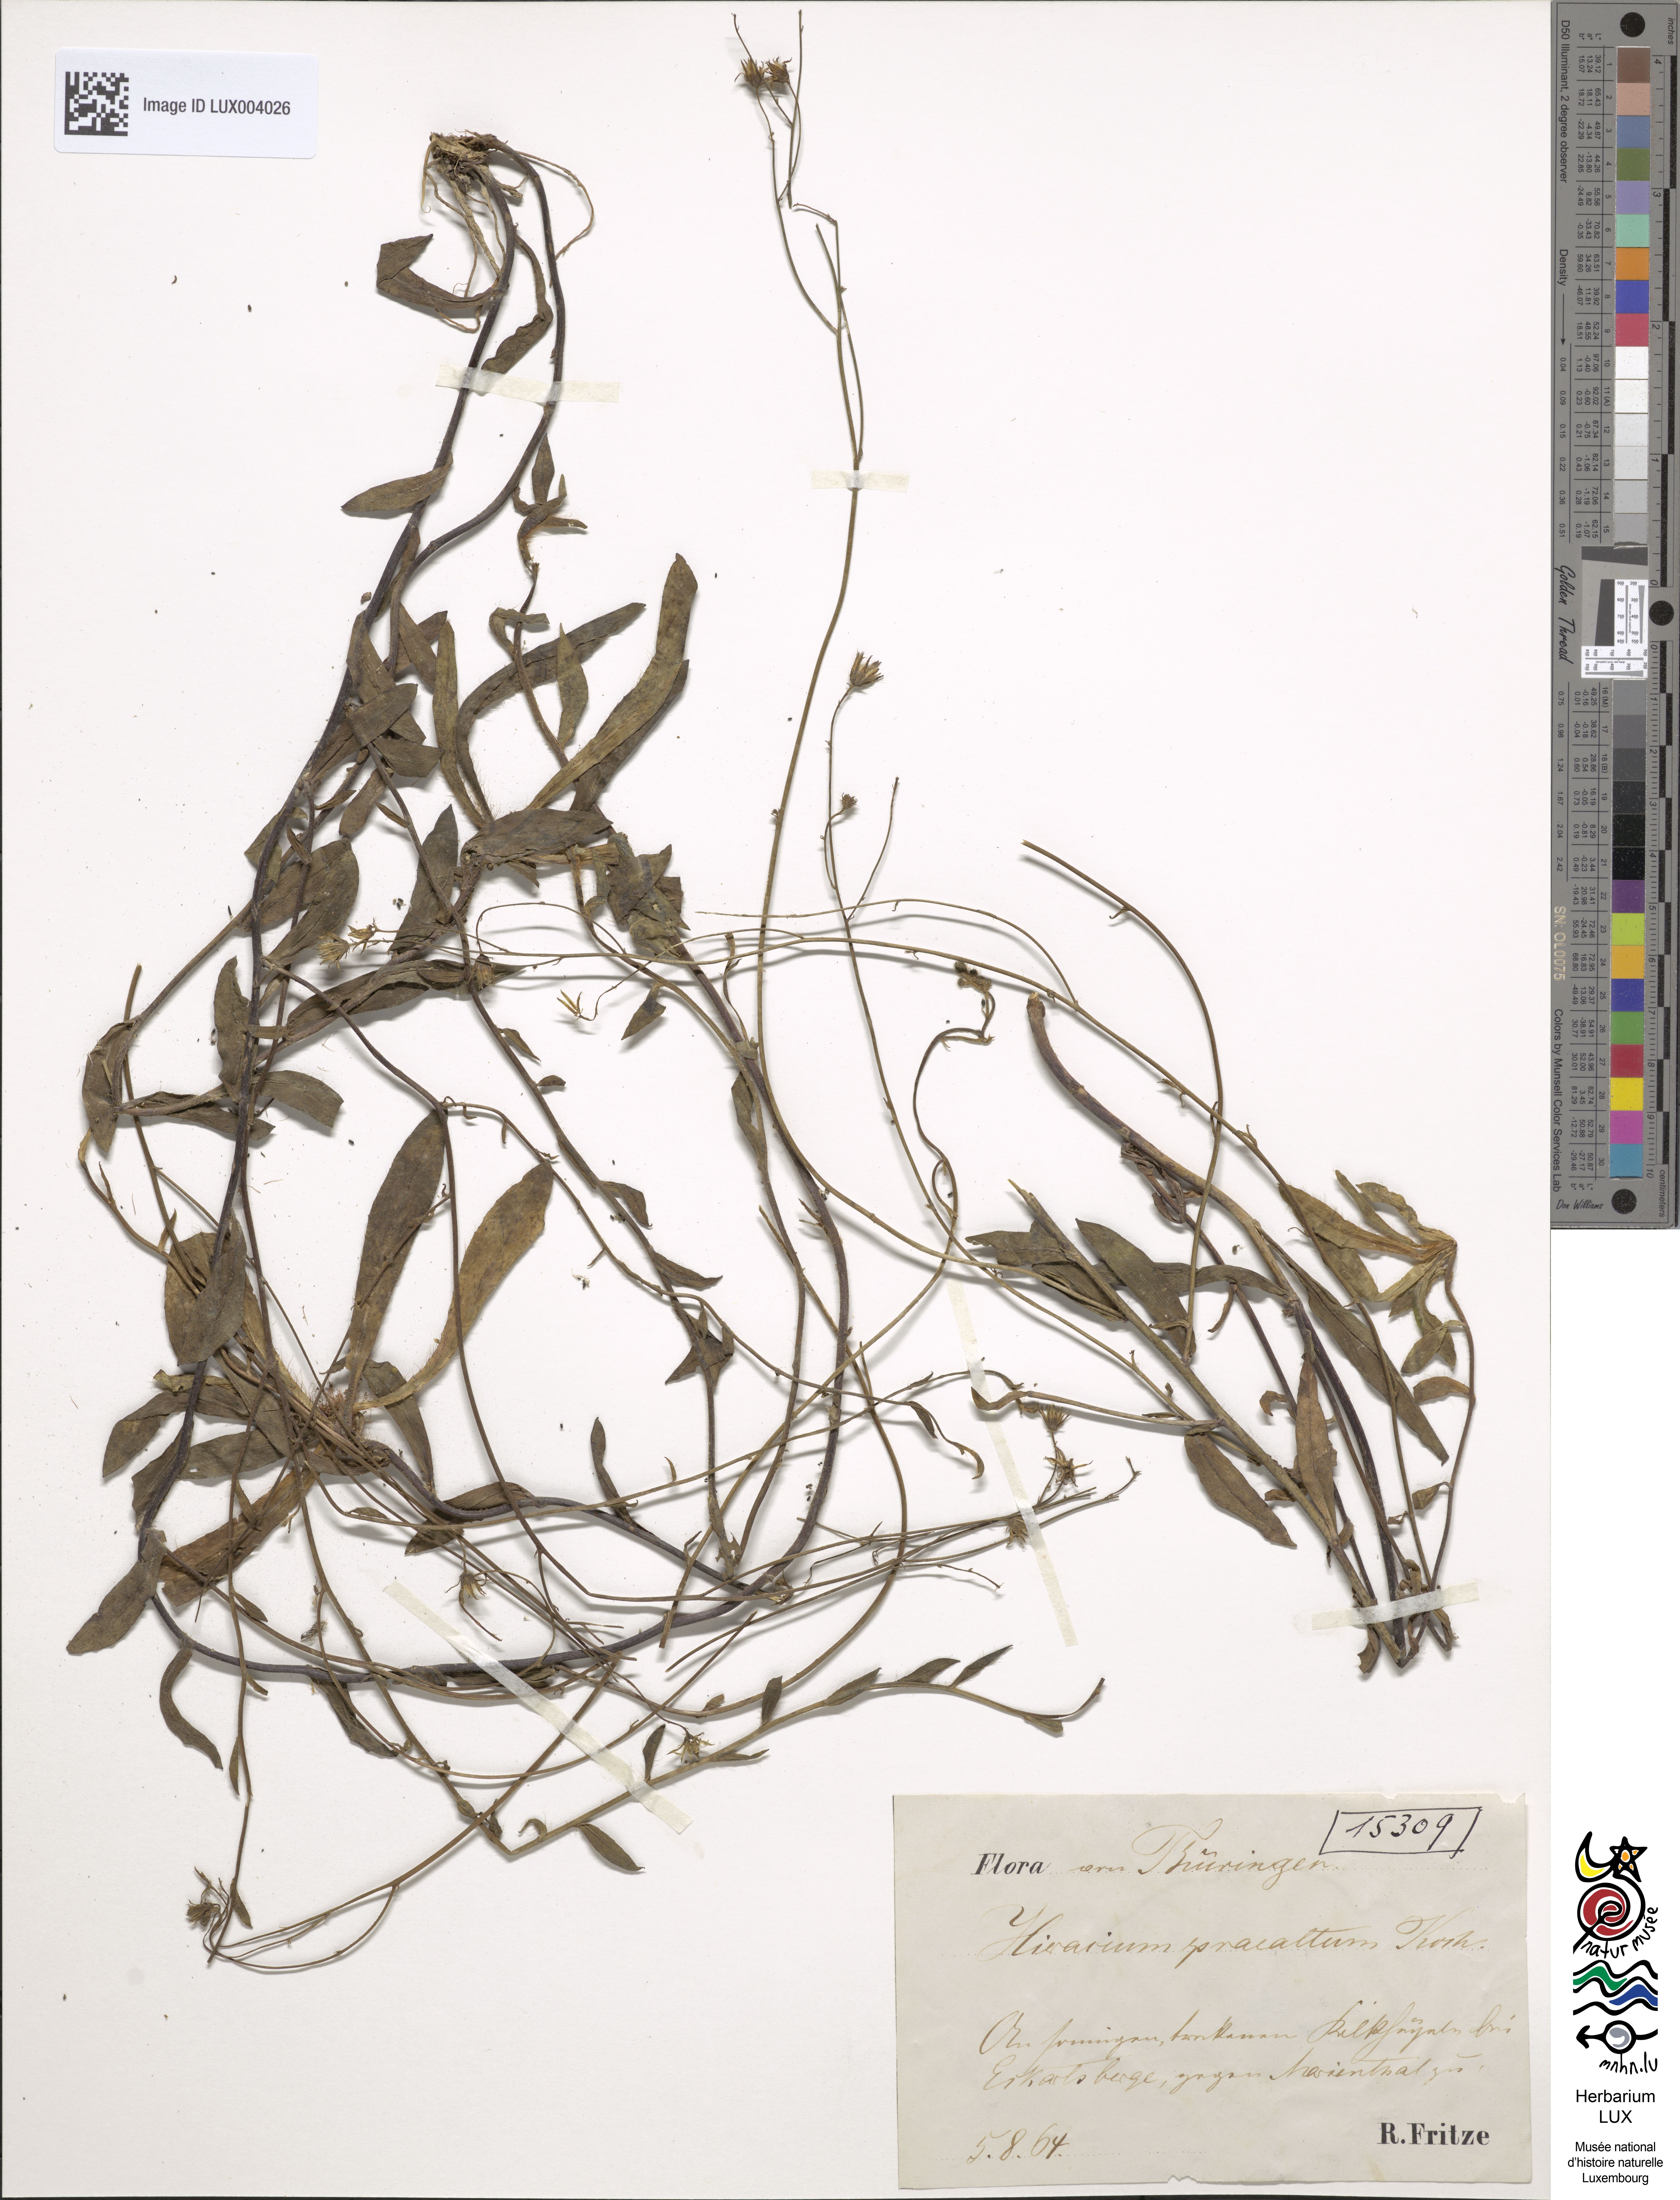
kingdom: Plantae
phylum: Tracheophyta
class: Magnoliopsida
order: Asterales
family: Asteraceae
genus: Pilosella
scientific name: Pilosella piloselloides
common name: Glaucous king-devil
